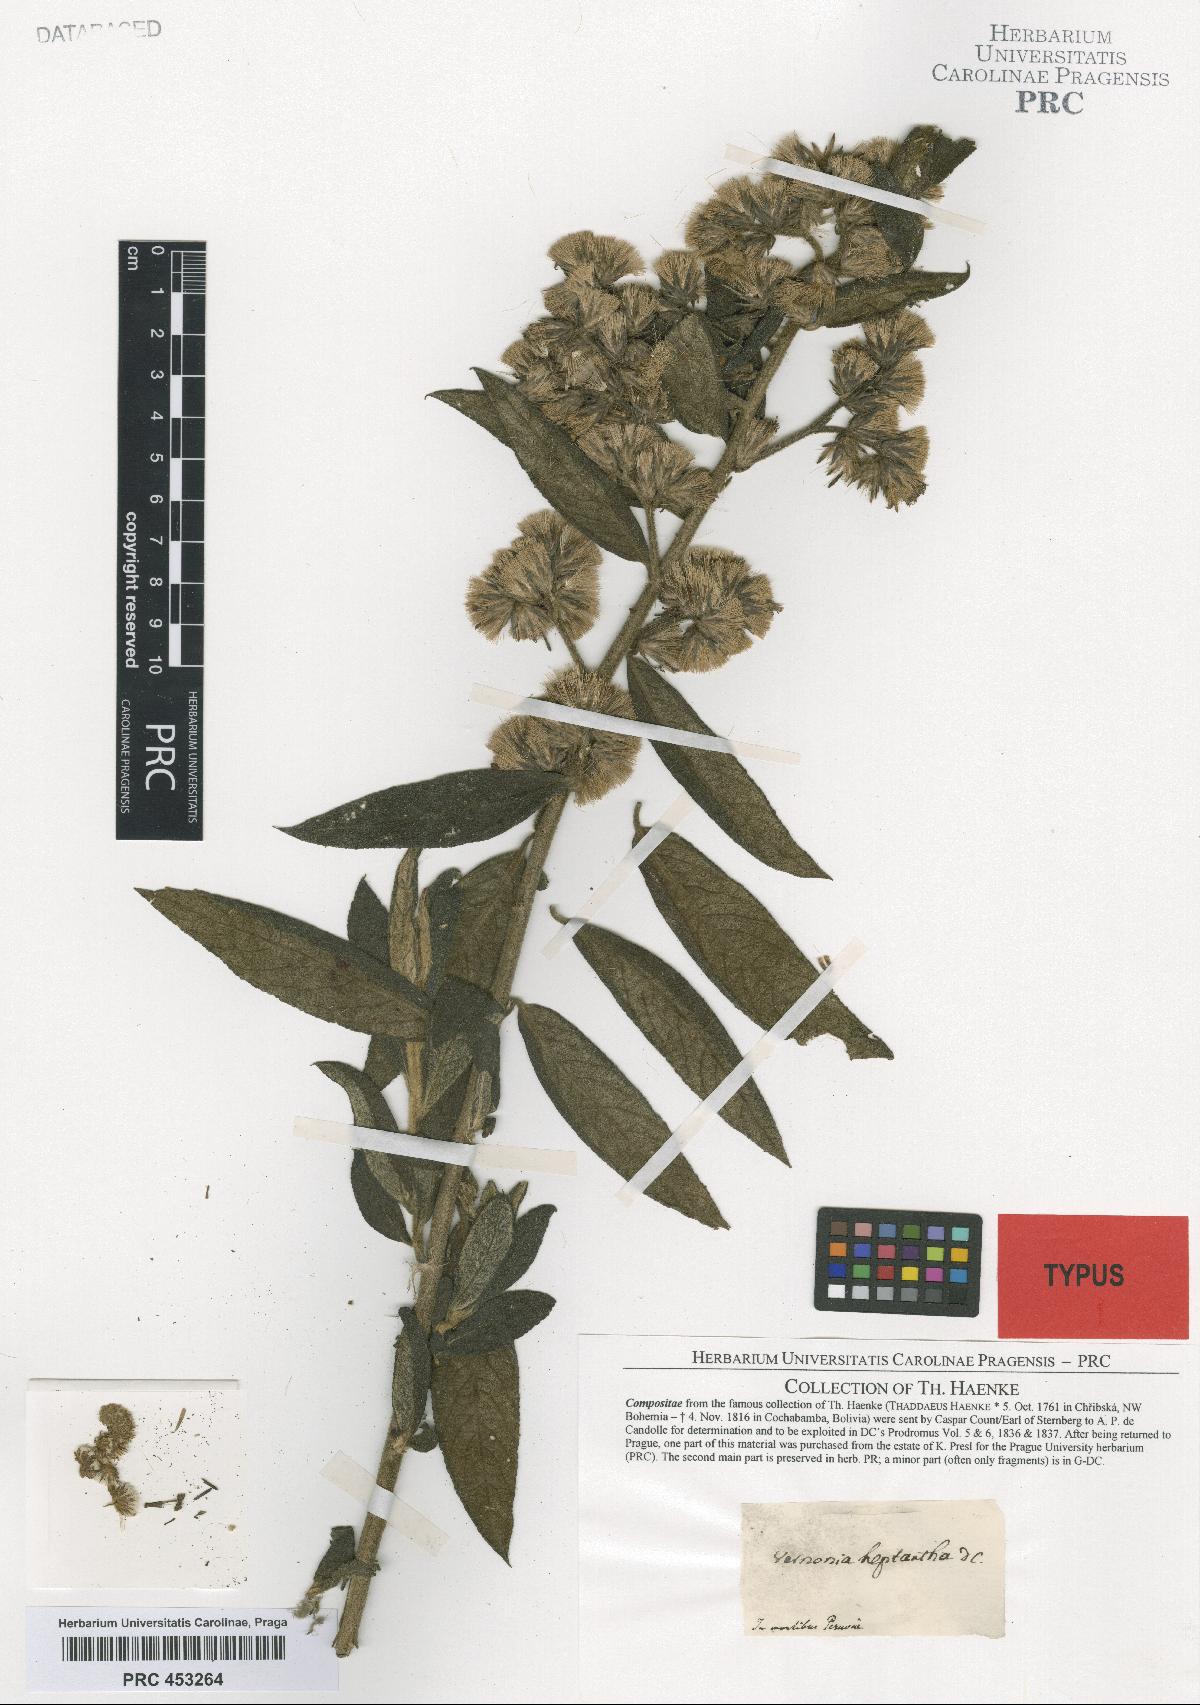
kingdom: Plantae
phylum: Tracheophyta
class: Magnoliopsida
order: Asterales
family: Asteraceae
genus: Vernonia
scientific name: Vernonia heptantha
